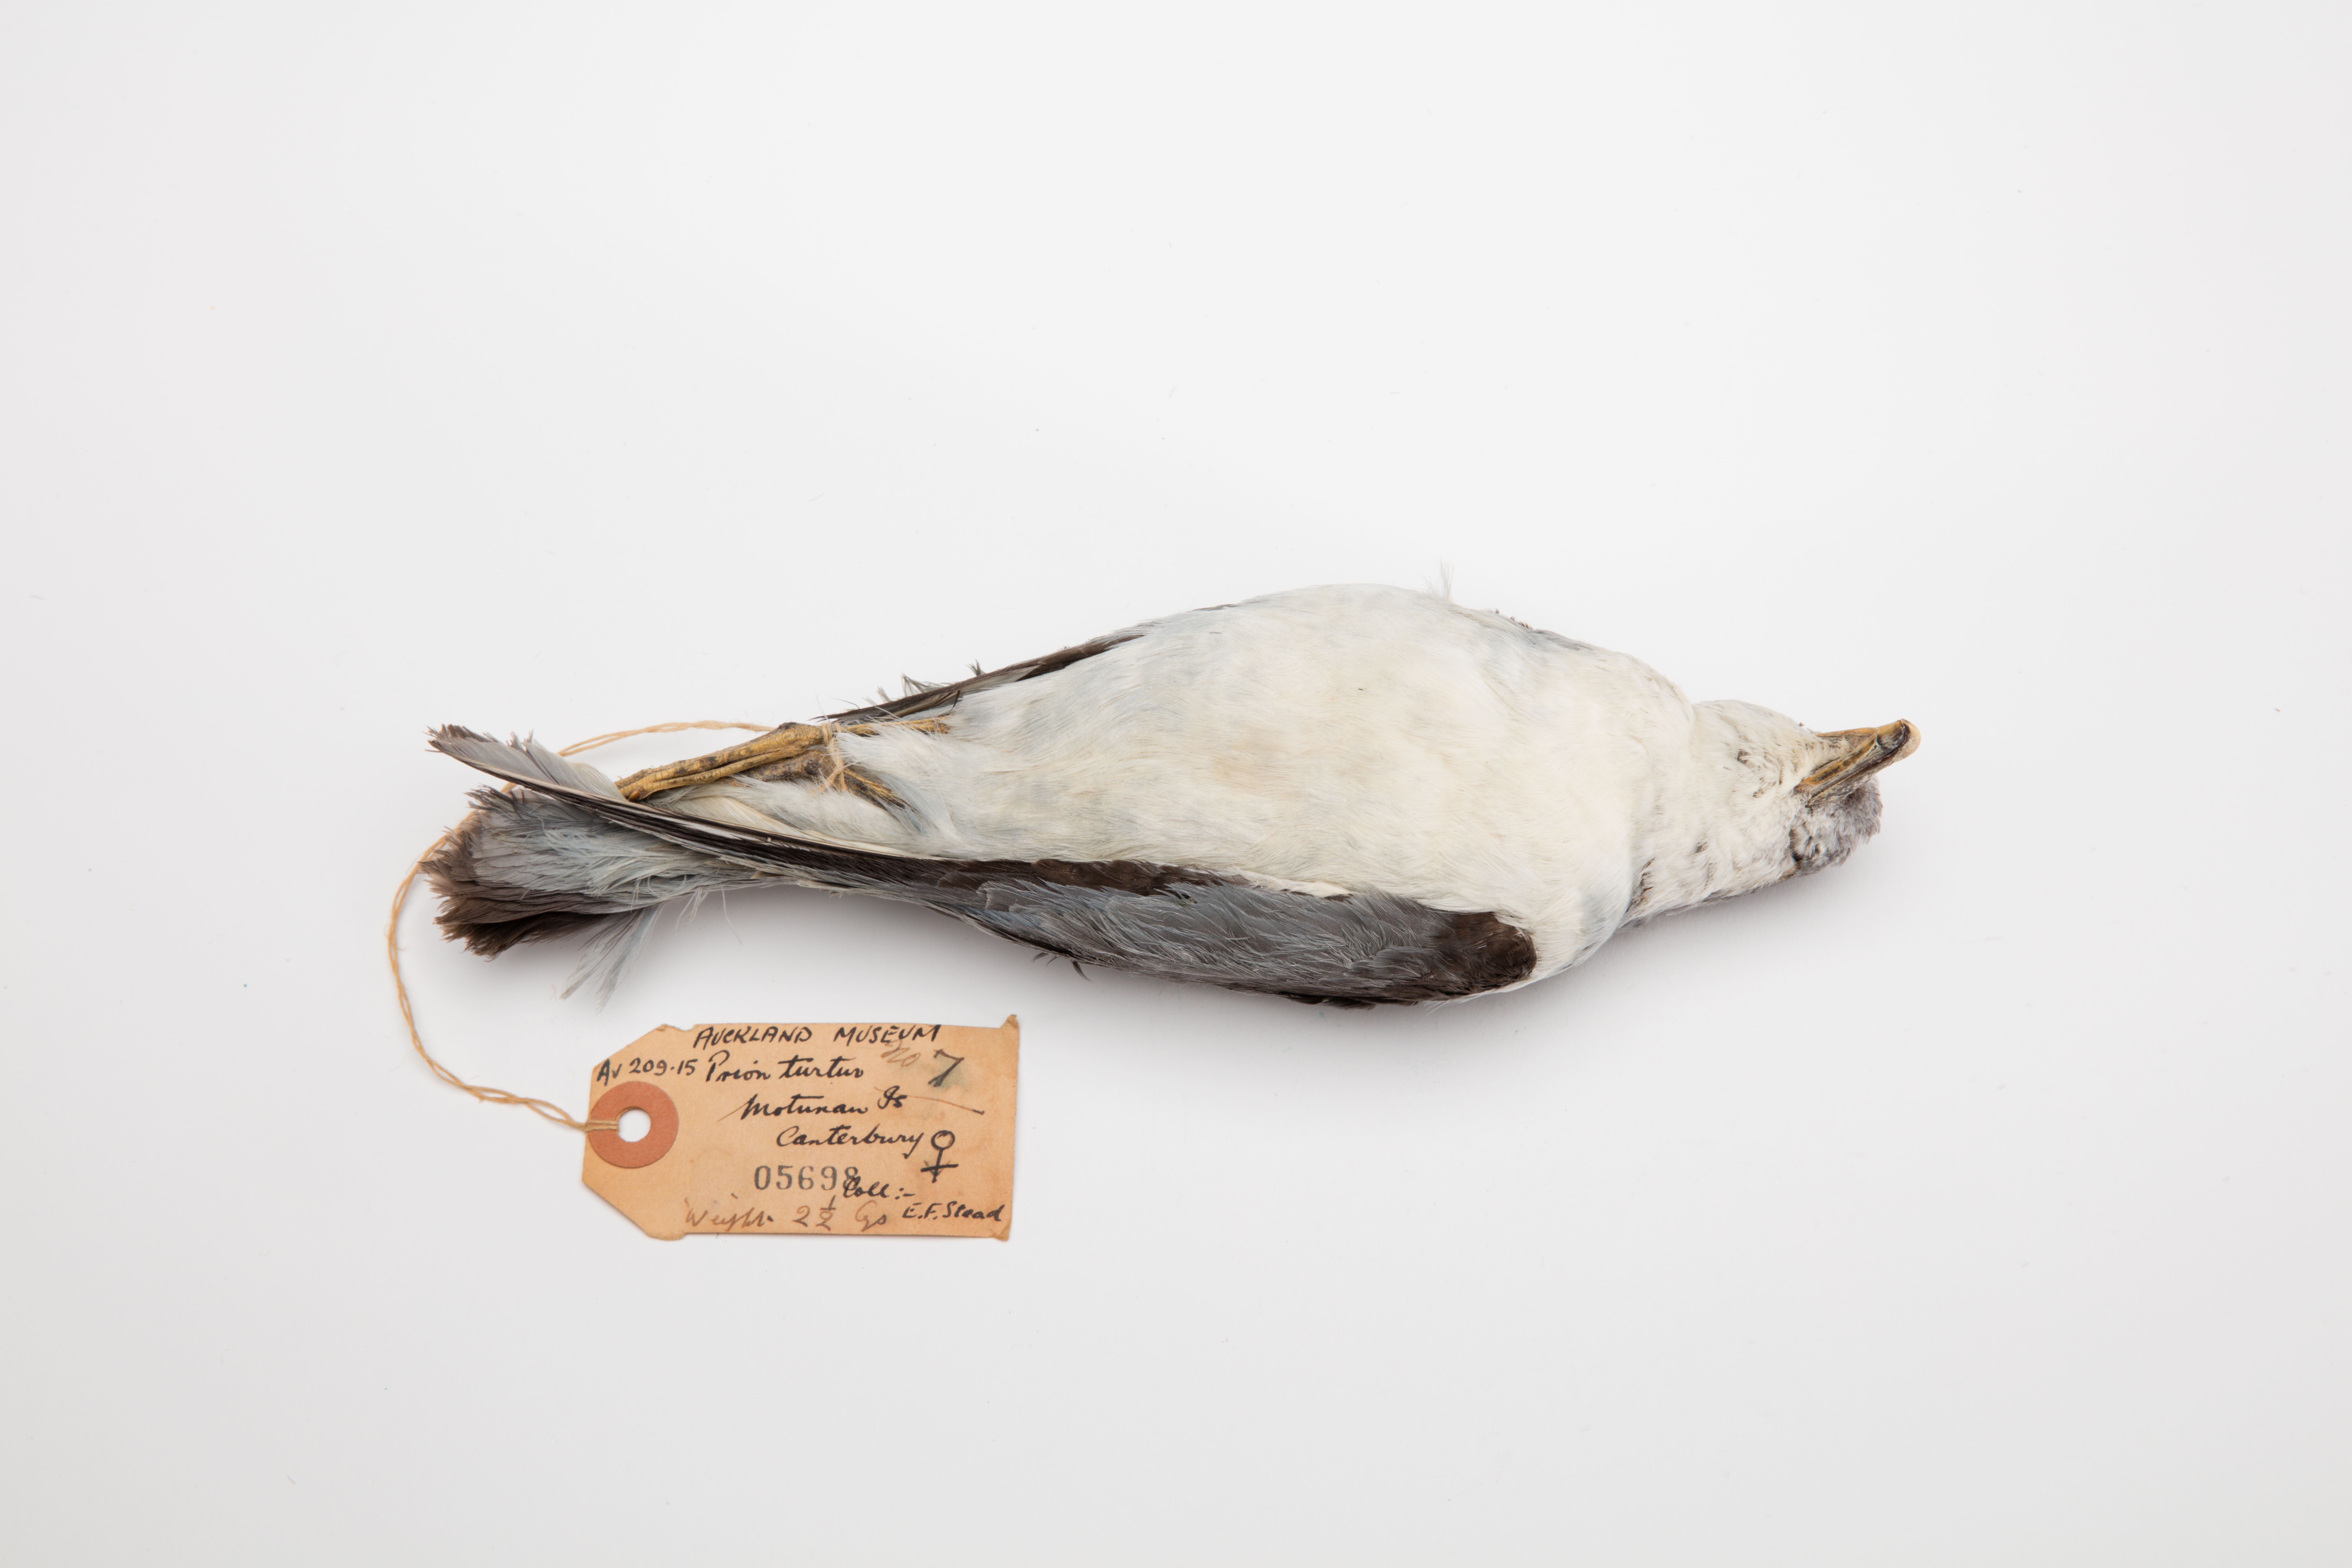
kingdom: Animalia
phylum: Chordata
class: Aves
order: Procellariiformes
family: Procellariidae
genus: Pachyptila
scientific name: Pachyptila turtur
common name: Fairy prion
